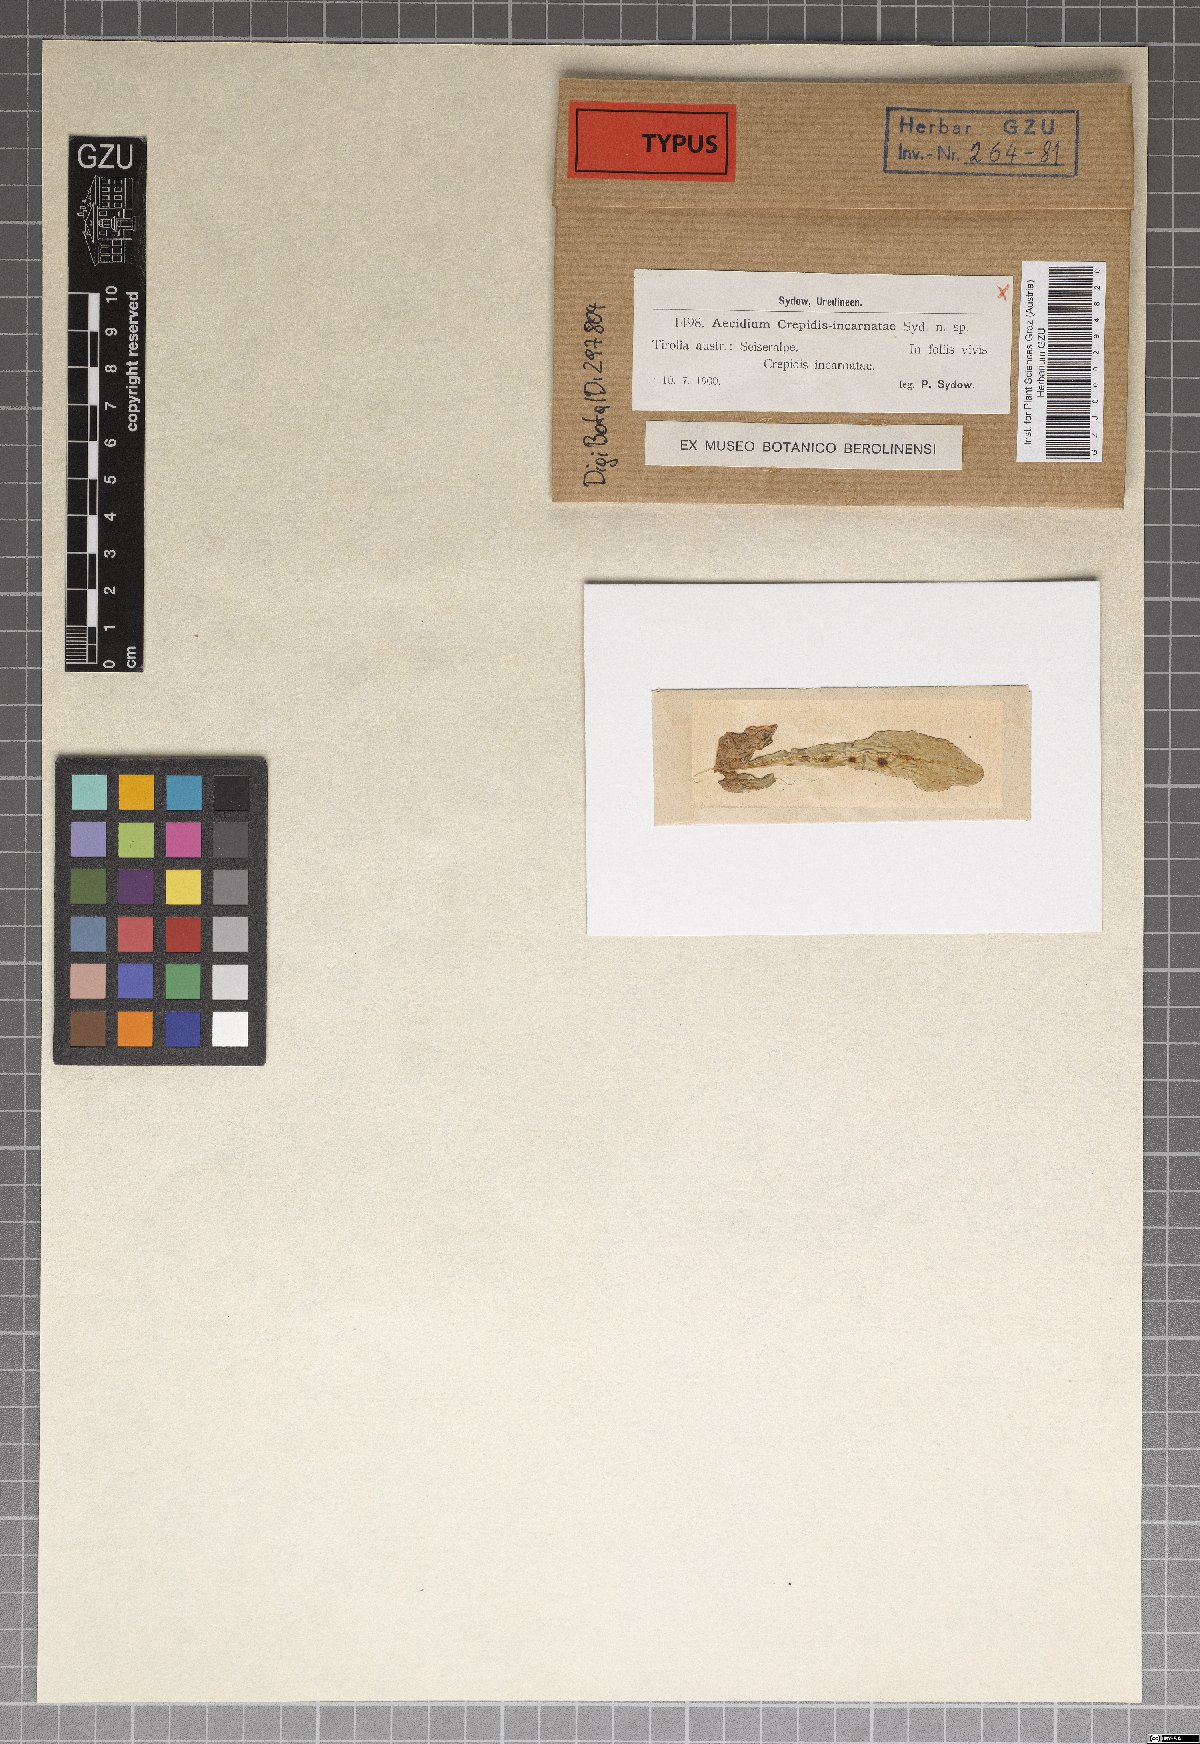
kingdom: Fungi
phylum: Basidiomycota
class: Pucciniomycetes
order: Pucciniales
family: Pucciniaceae
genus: Aecidium
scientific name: Aecidium crepidis-incarnatae
